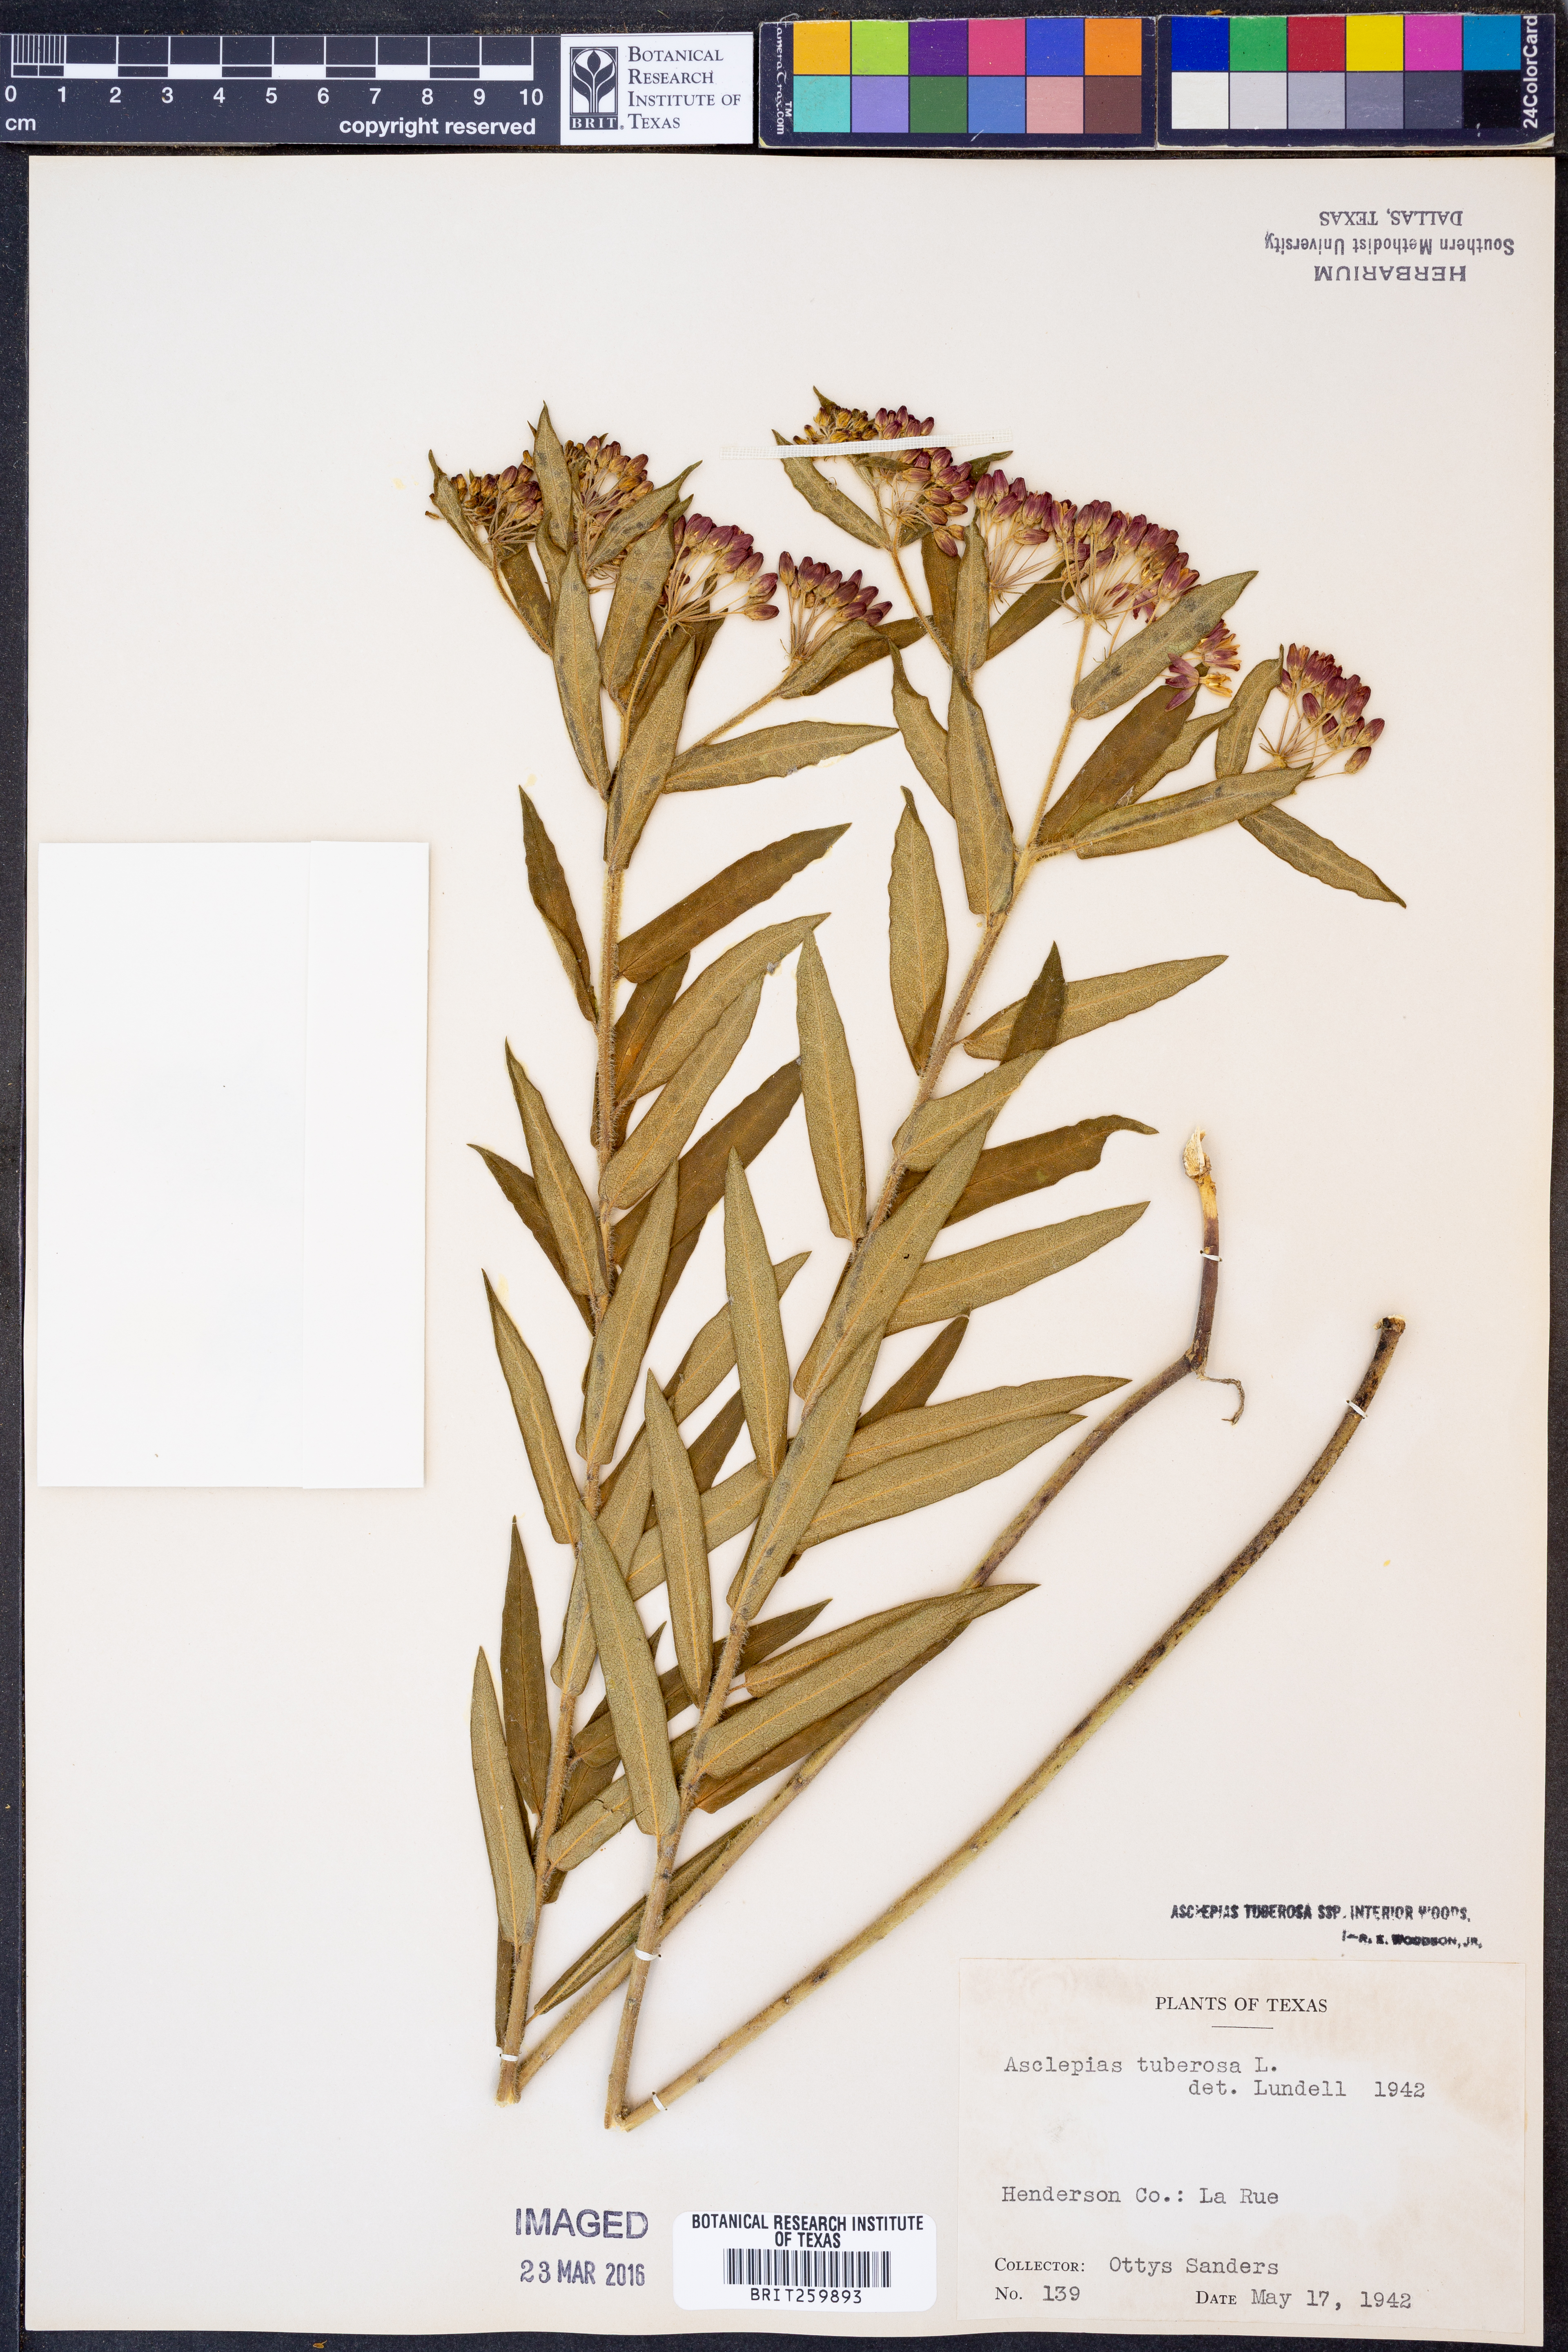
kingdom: Plantae
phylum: Tracheophyta
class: Magnoliopsida
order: Gentianales
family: Apocynaceae
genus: Asclepias
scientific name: Asclepias tuberosa
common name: Butterfly milkweed
